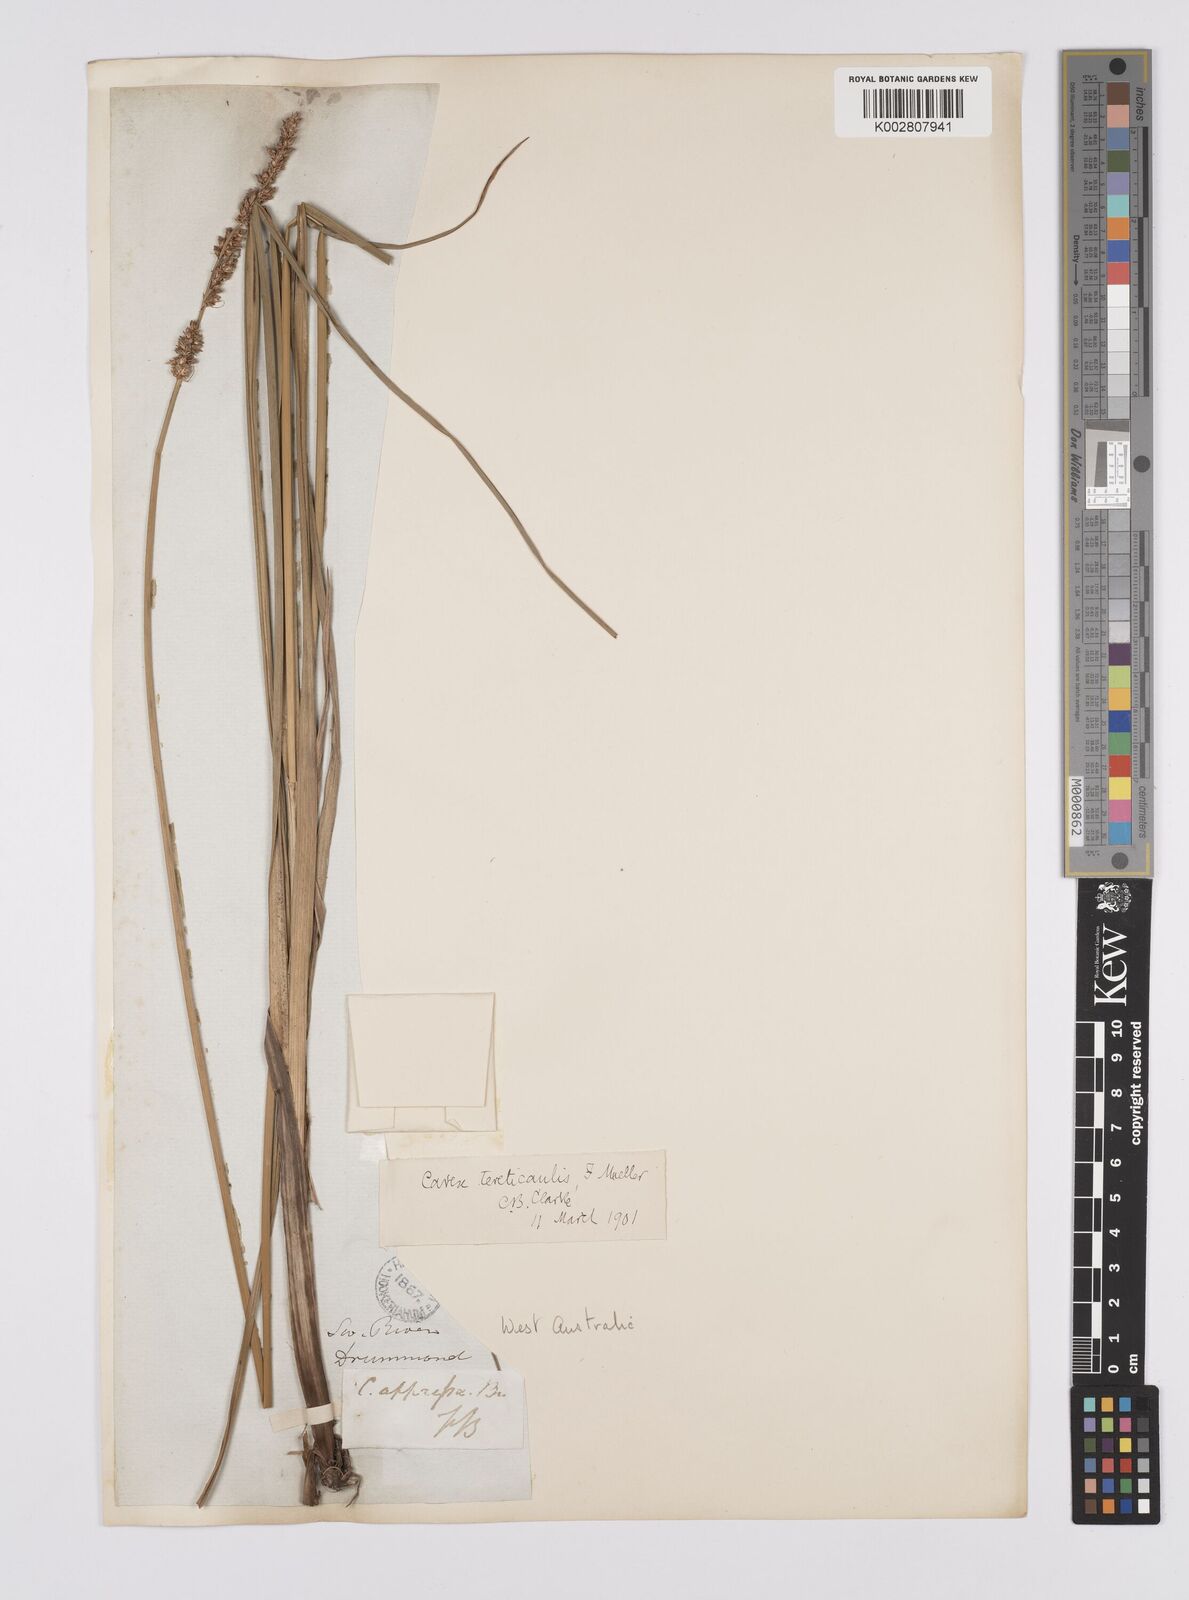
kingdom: Plantae
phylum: Tracheophyta
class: Liliopsida
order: Poales
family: Cyperaceae
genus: Carex
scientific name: Carex tereticaulis
